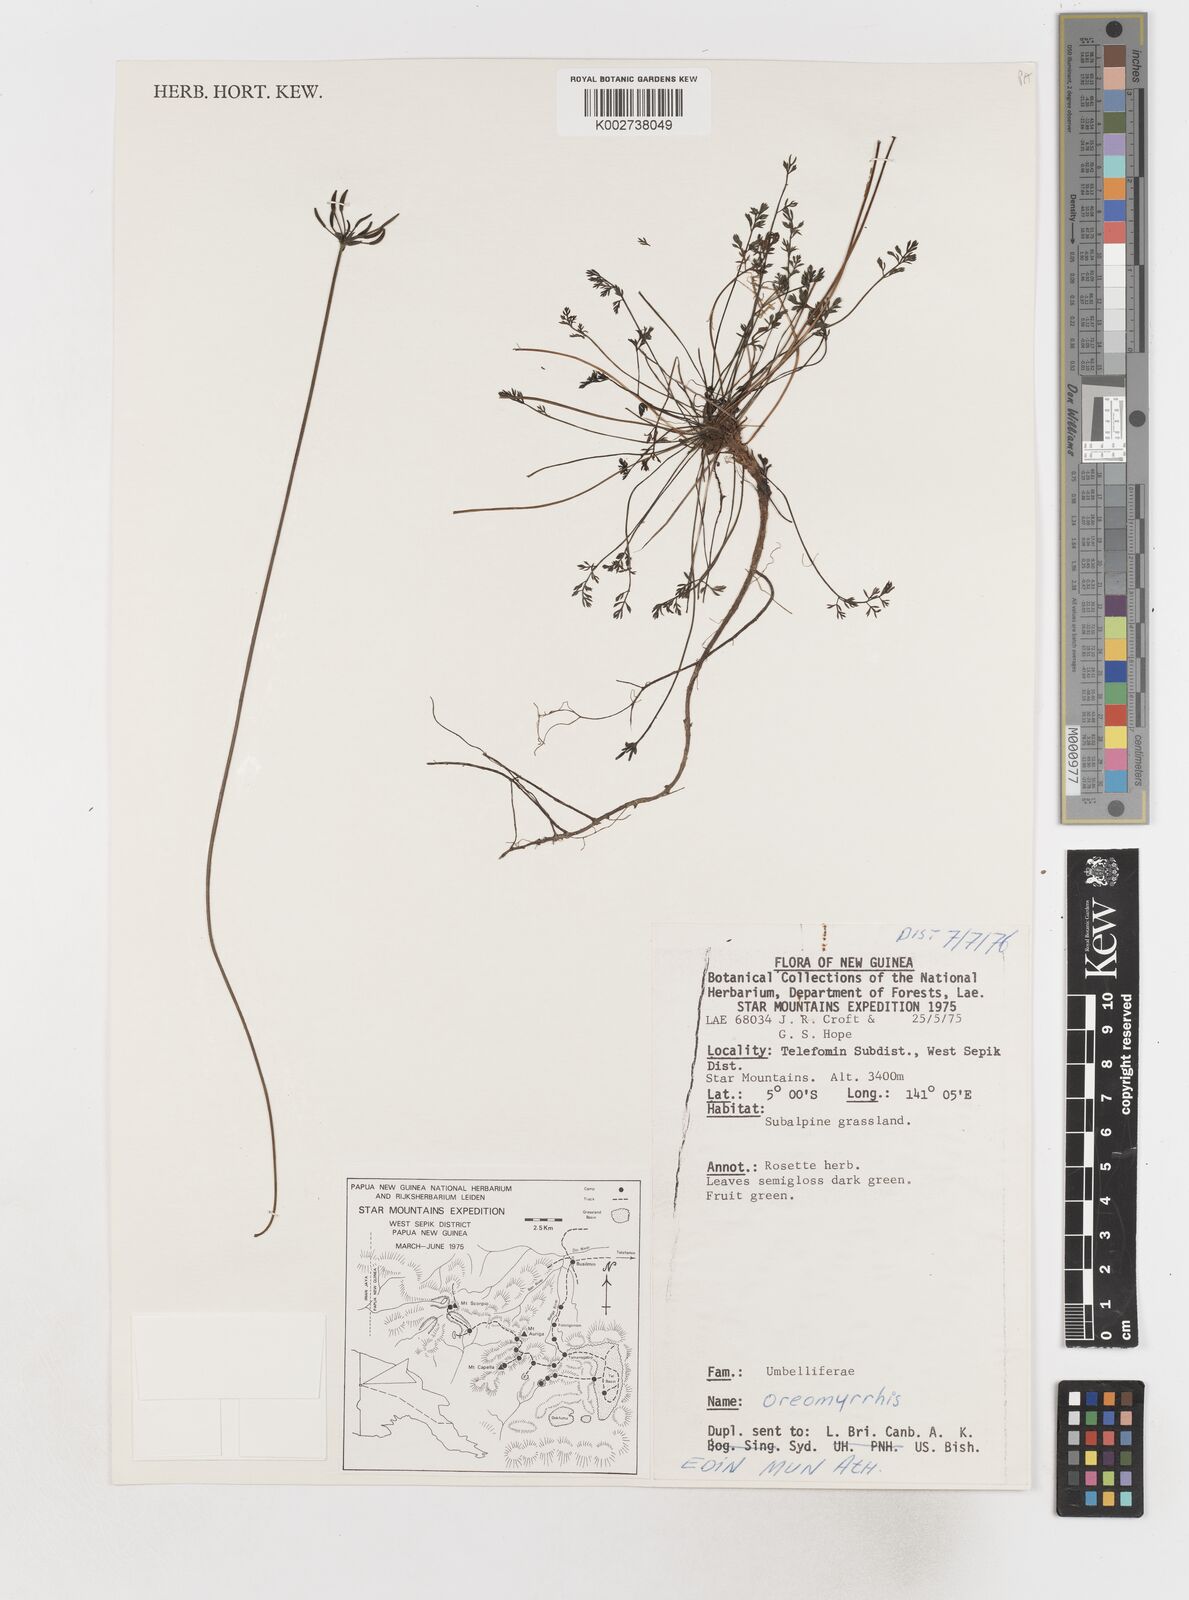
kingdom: Plantae
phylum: Tracheophyta
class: Magnoliopsida
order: Apiales
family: Apiaceae
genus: Chaerophyllum
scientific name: Chaerophyllum pumilum
